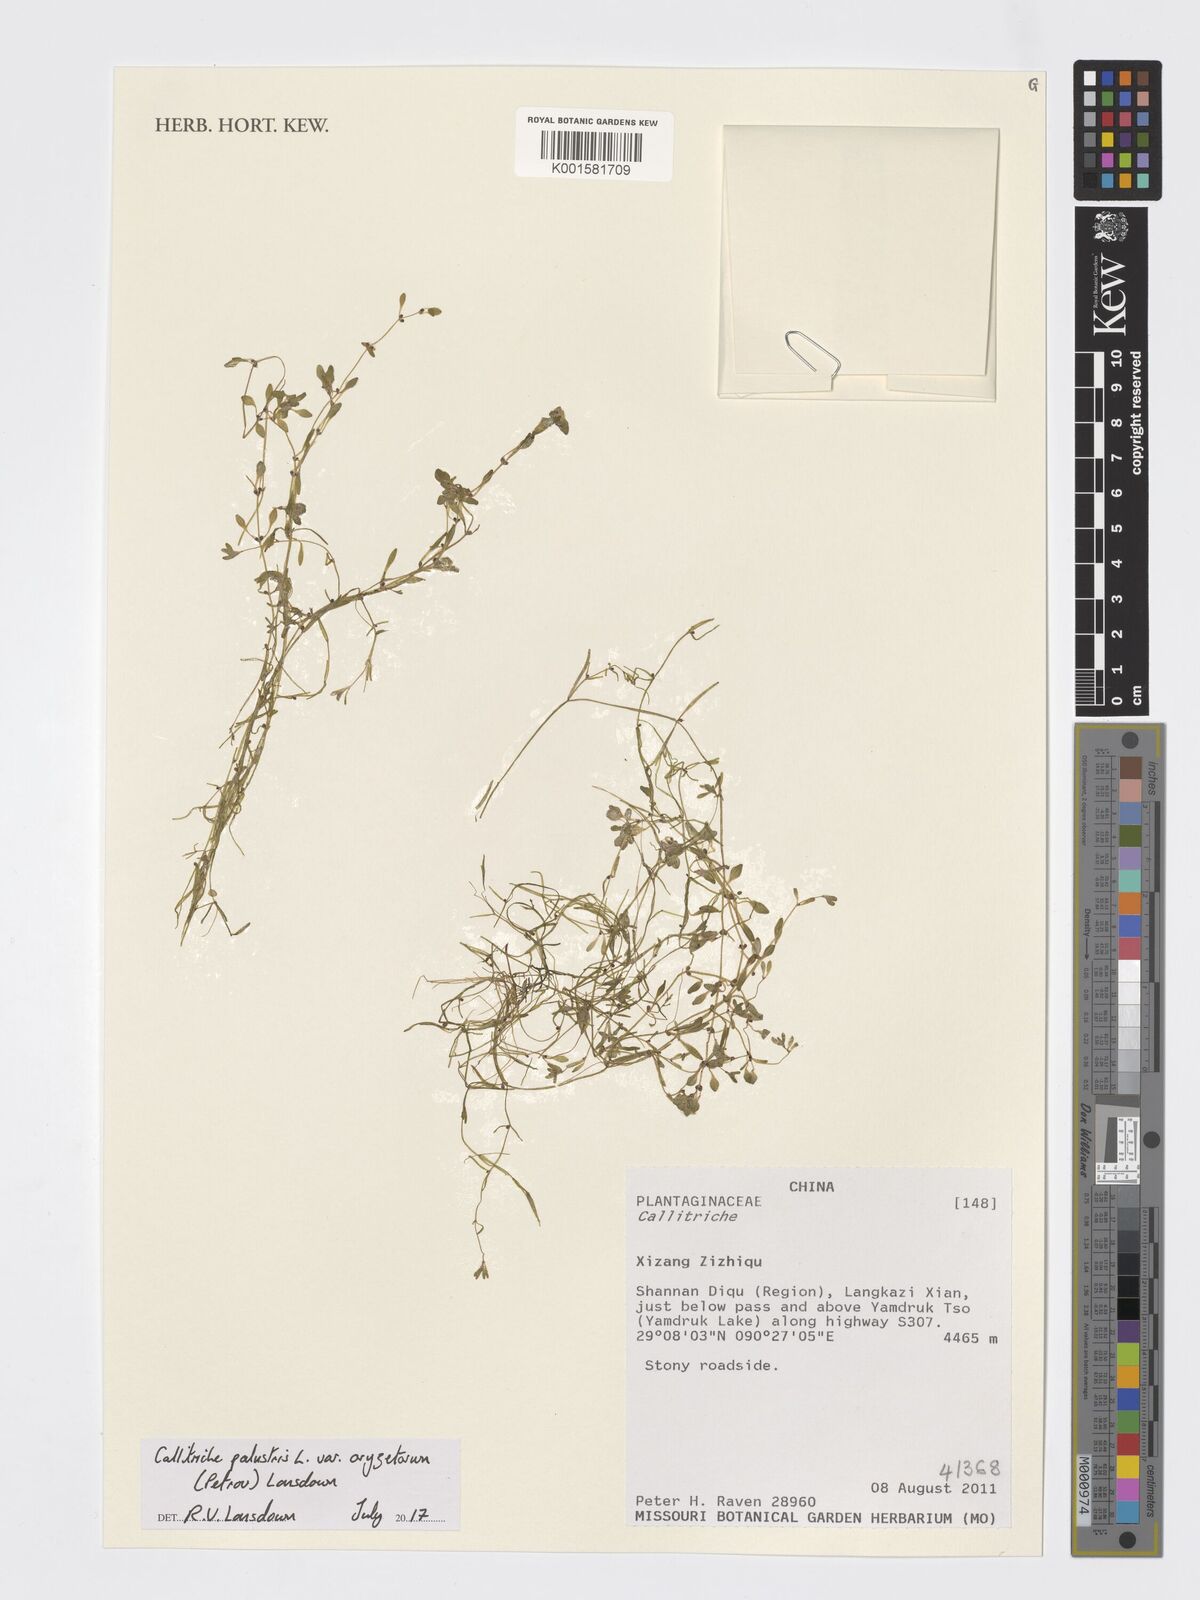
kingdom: Plantae
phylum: Tracheophyta
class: Magnoliopsida
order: Lamiales
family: Plantaginaceae
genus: Callitriche
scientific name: Callitriche palustris
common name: Spring water-starwort
